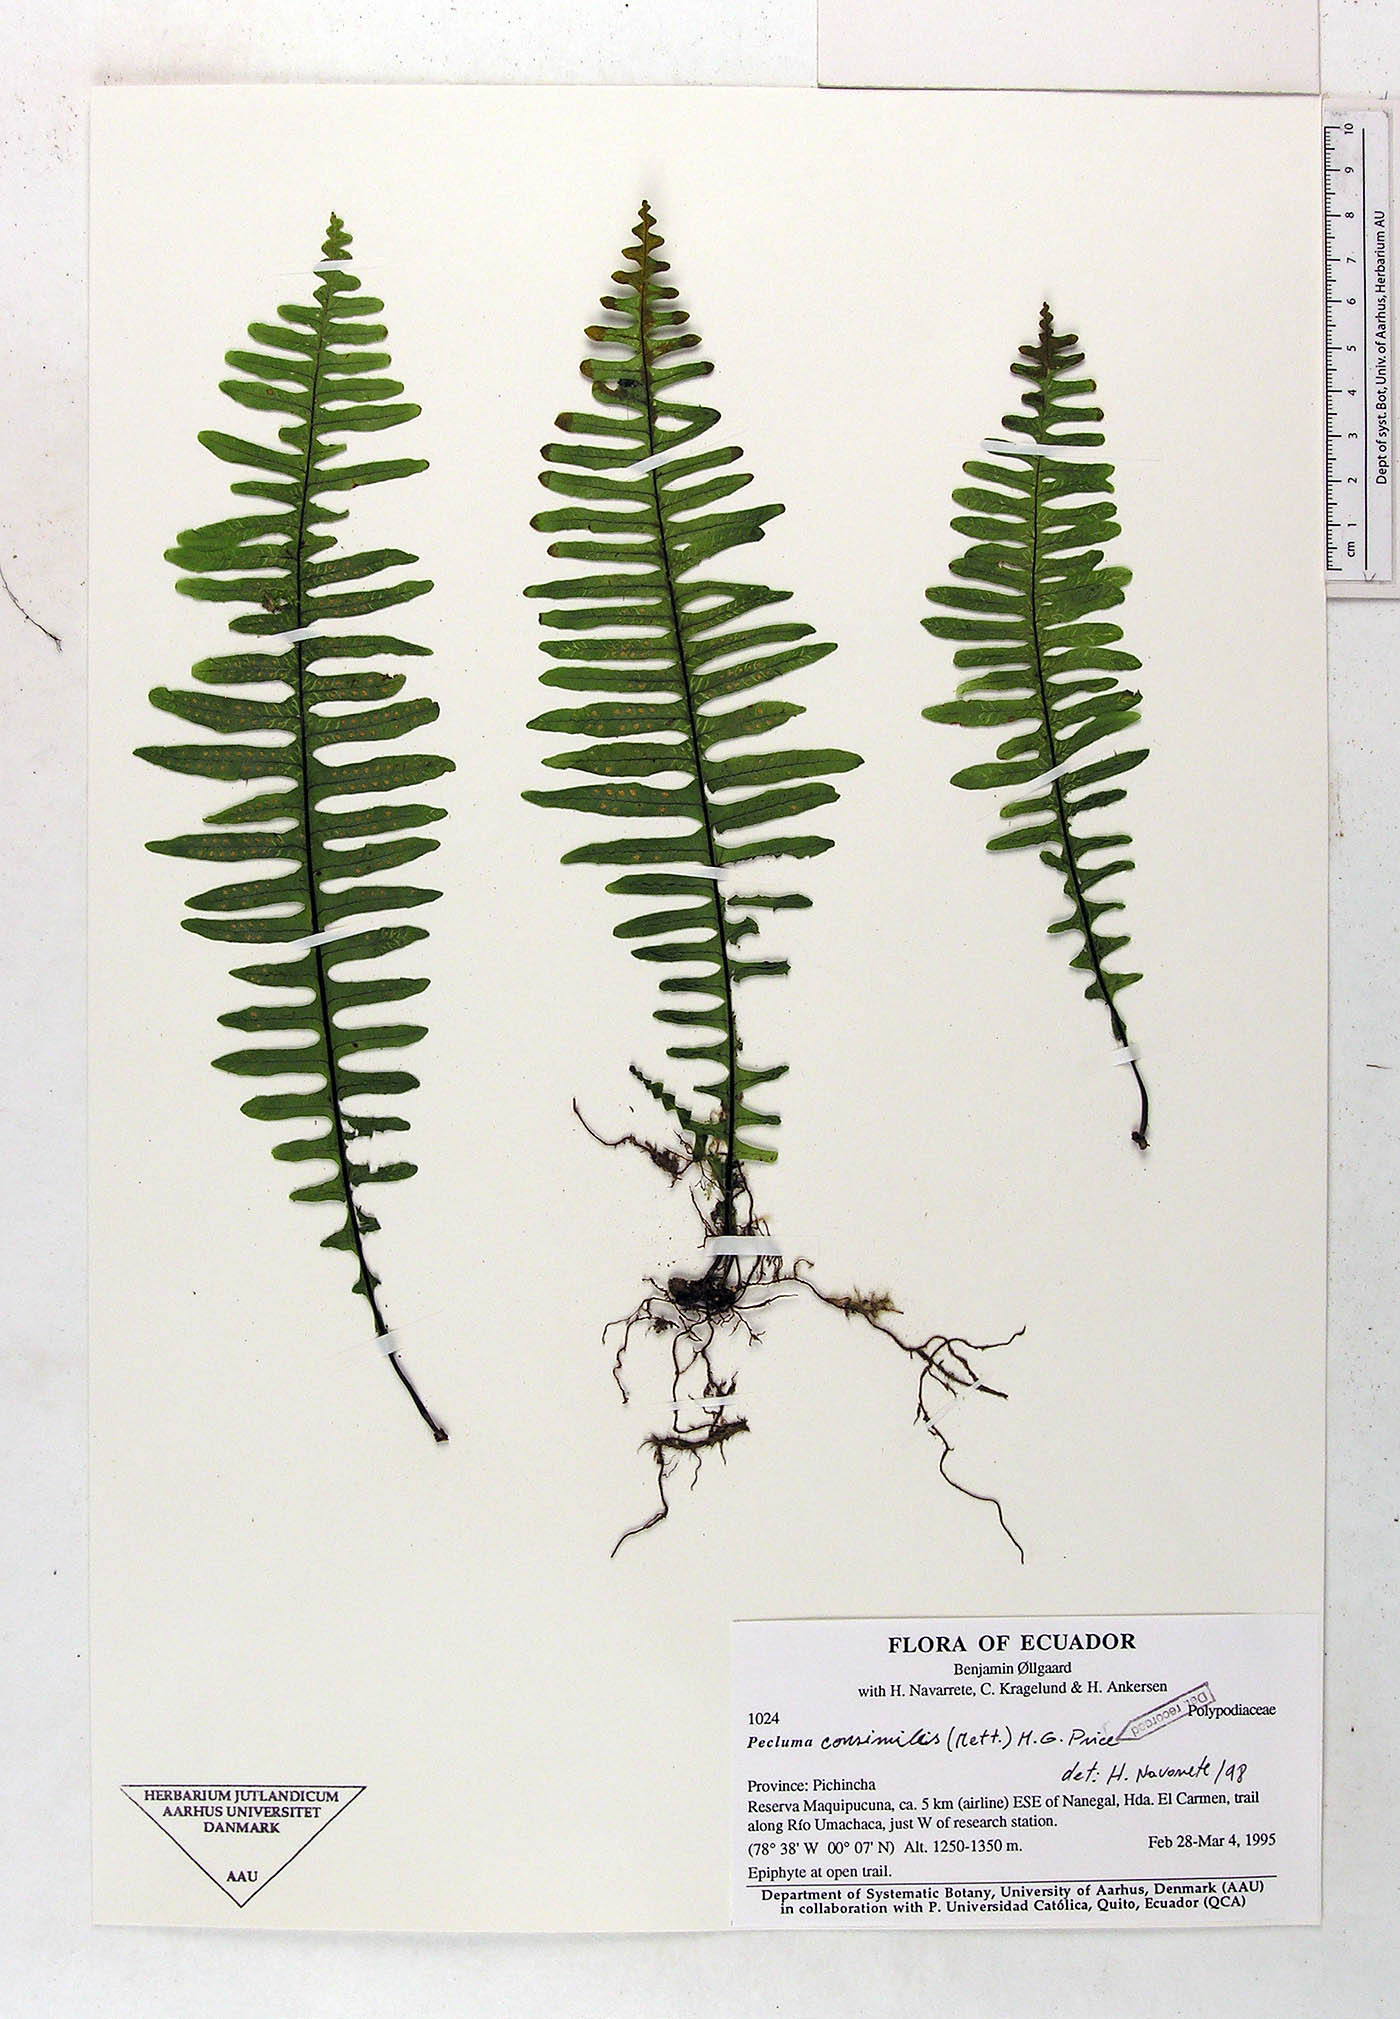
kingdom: Plantae
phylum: Tracheophyta
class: Polypodiopsida
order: Polypodiales
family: Polypodiaceae
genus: Pecluma
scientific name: Pecluma consimilis
